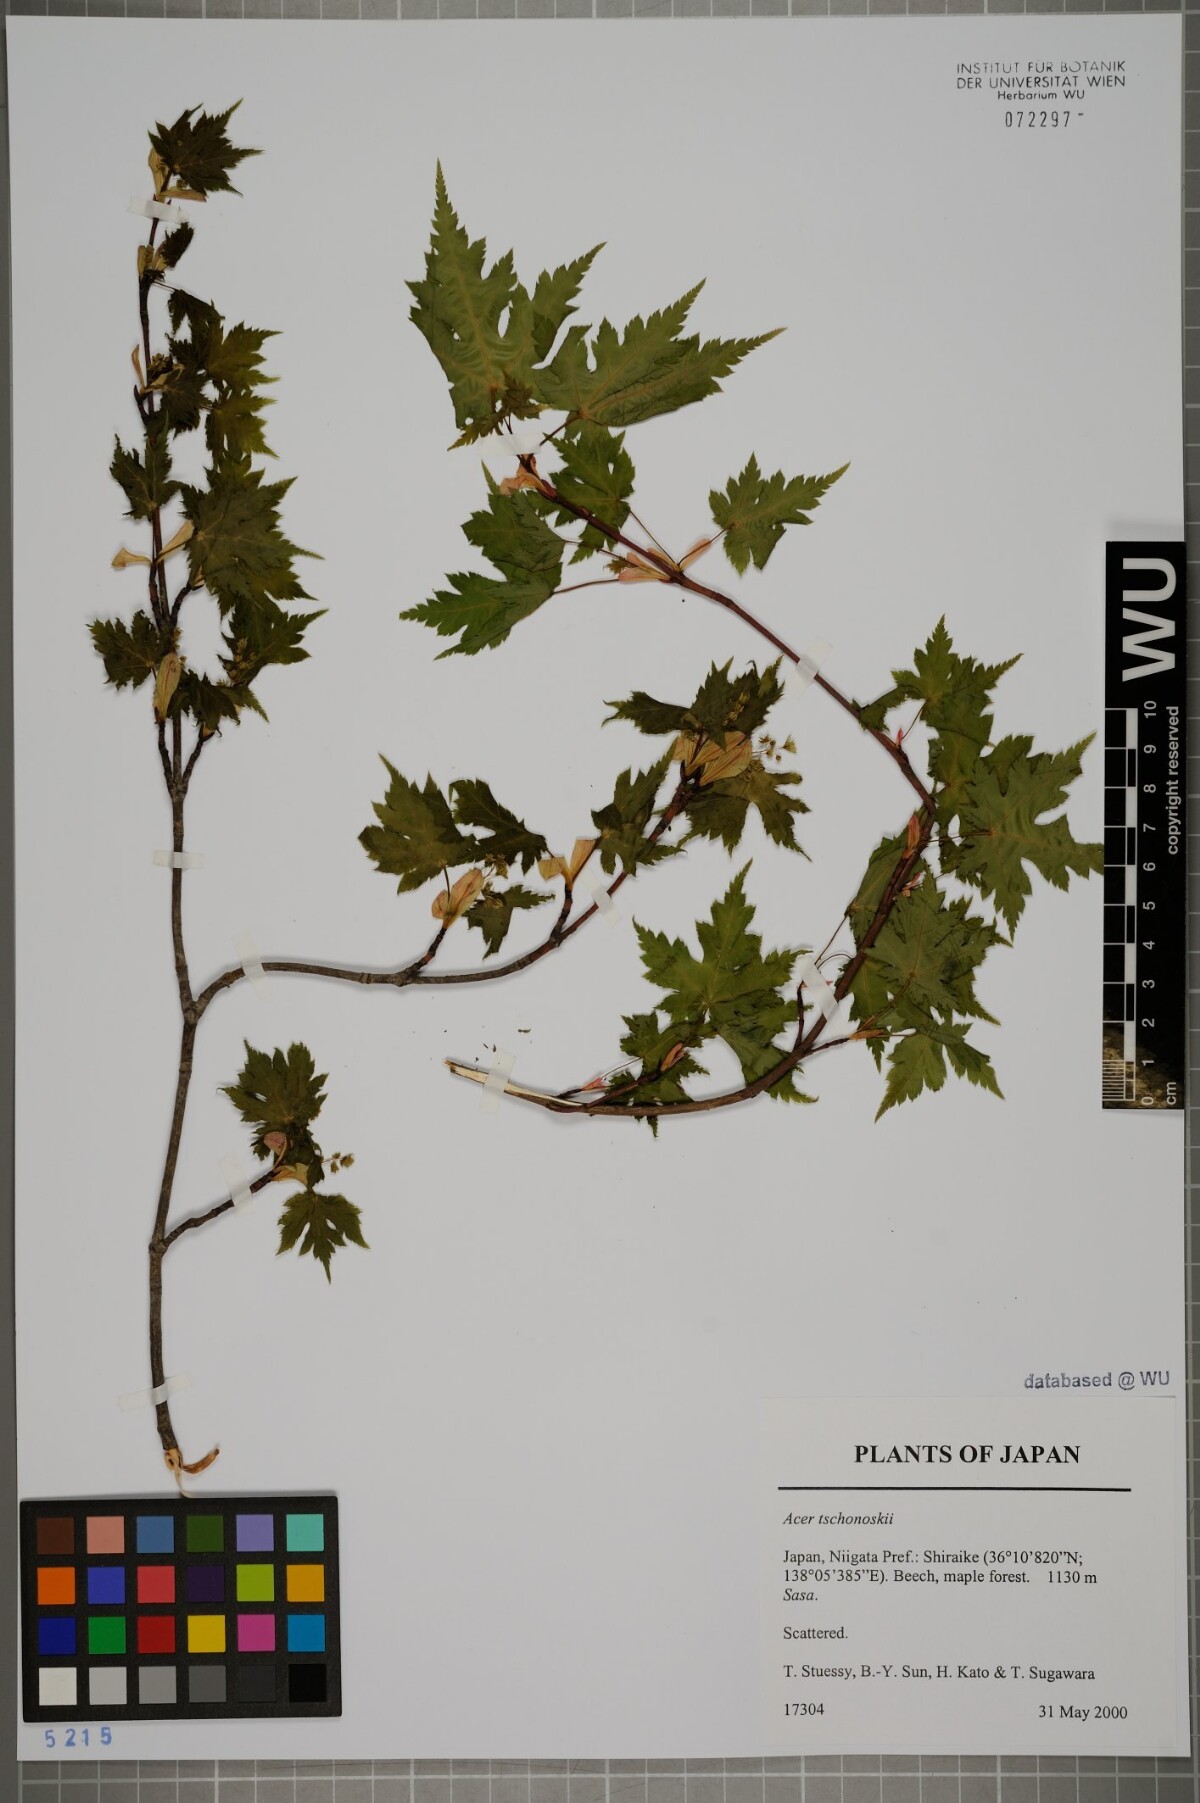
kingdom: Plantae
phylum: Tracheophyta
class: Magnoliopsida
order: Sapindales
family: Sapindaceae
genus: Acer
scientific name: Acer tschonoskii
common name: Tschonoski’s maple
